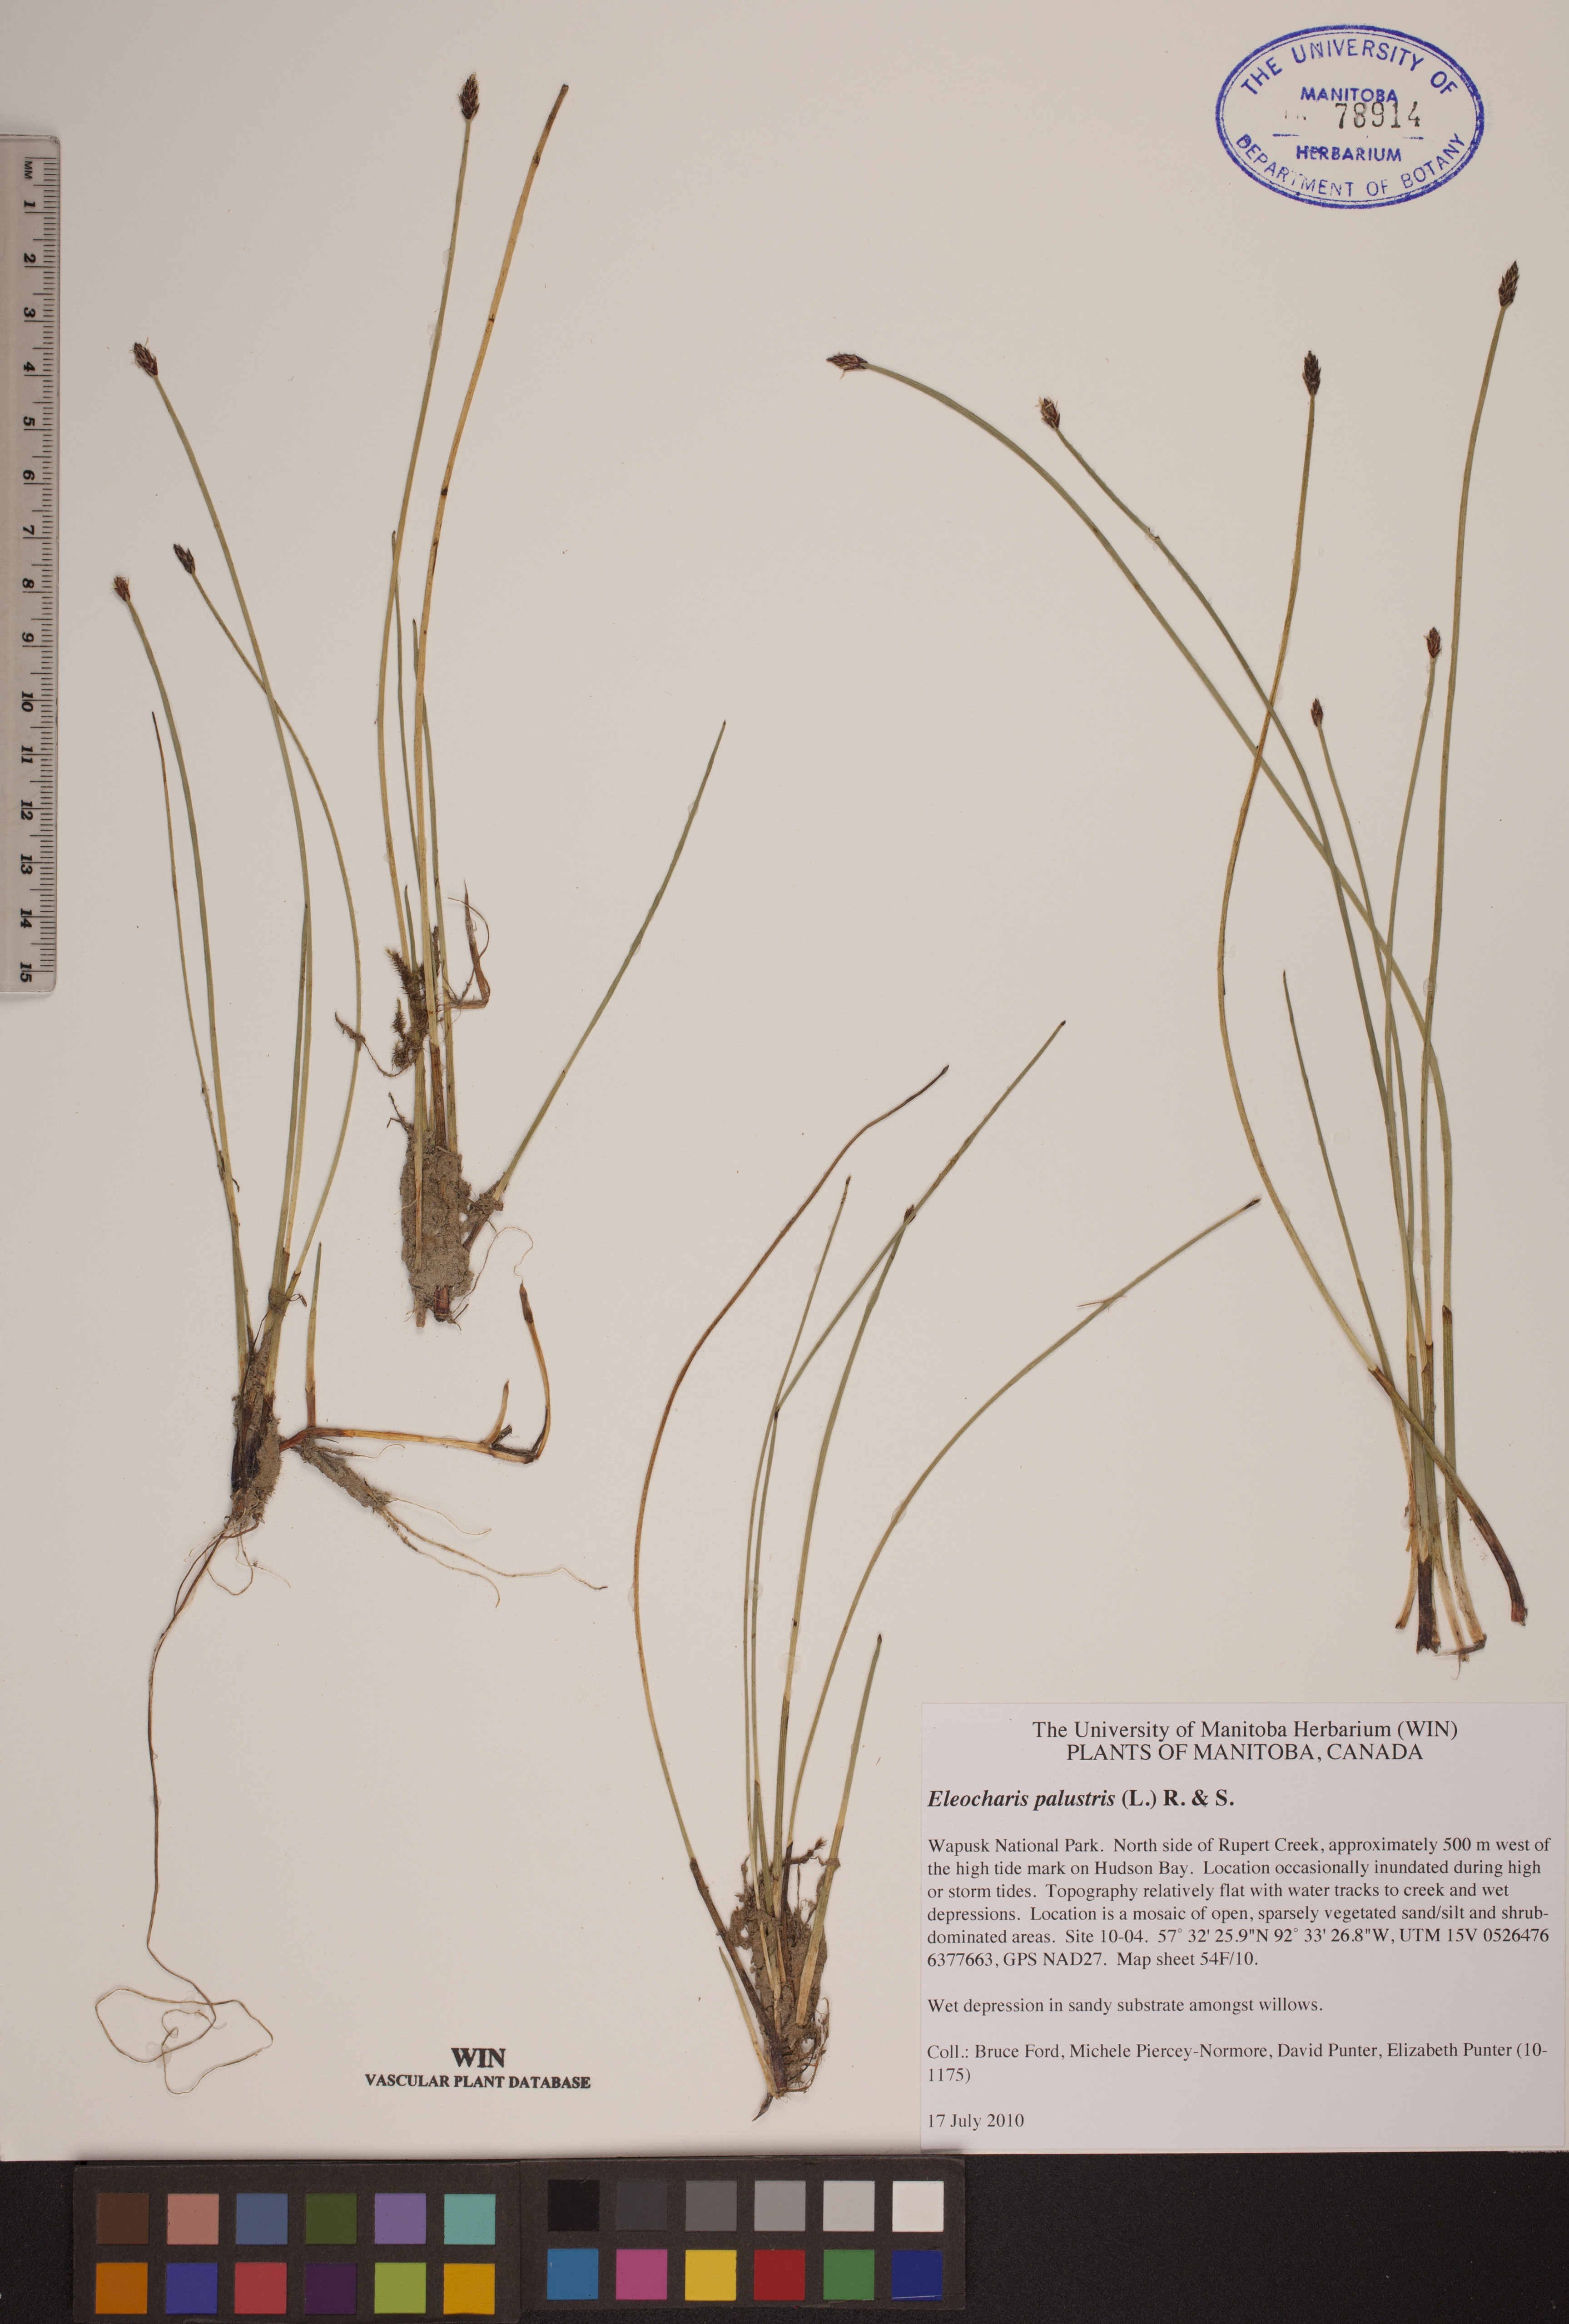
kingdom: Plantae
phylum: Tracheophyta
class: Liliopsida
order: Poales
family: Cyperaceae
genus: Eleocharis
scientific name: Eleocharis palustris
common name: Common spike-rush
